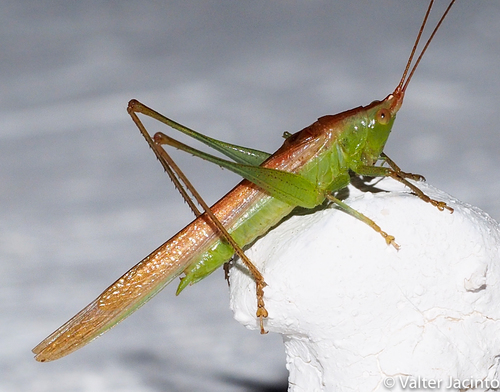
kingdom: Animalia
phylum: Arthropoda
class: Insecta
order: Orthoptera
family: Tettigoniidae
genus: Conocephalus
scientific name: Conocephalus conocephalus
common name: African meadow katydid
